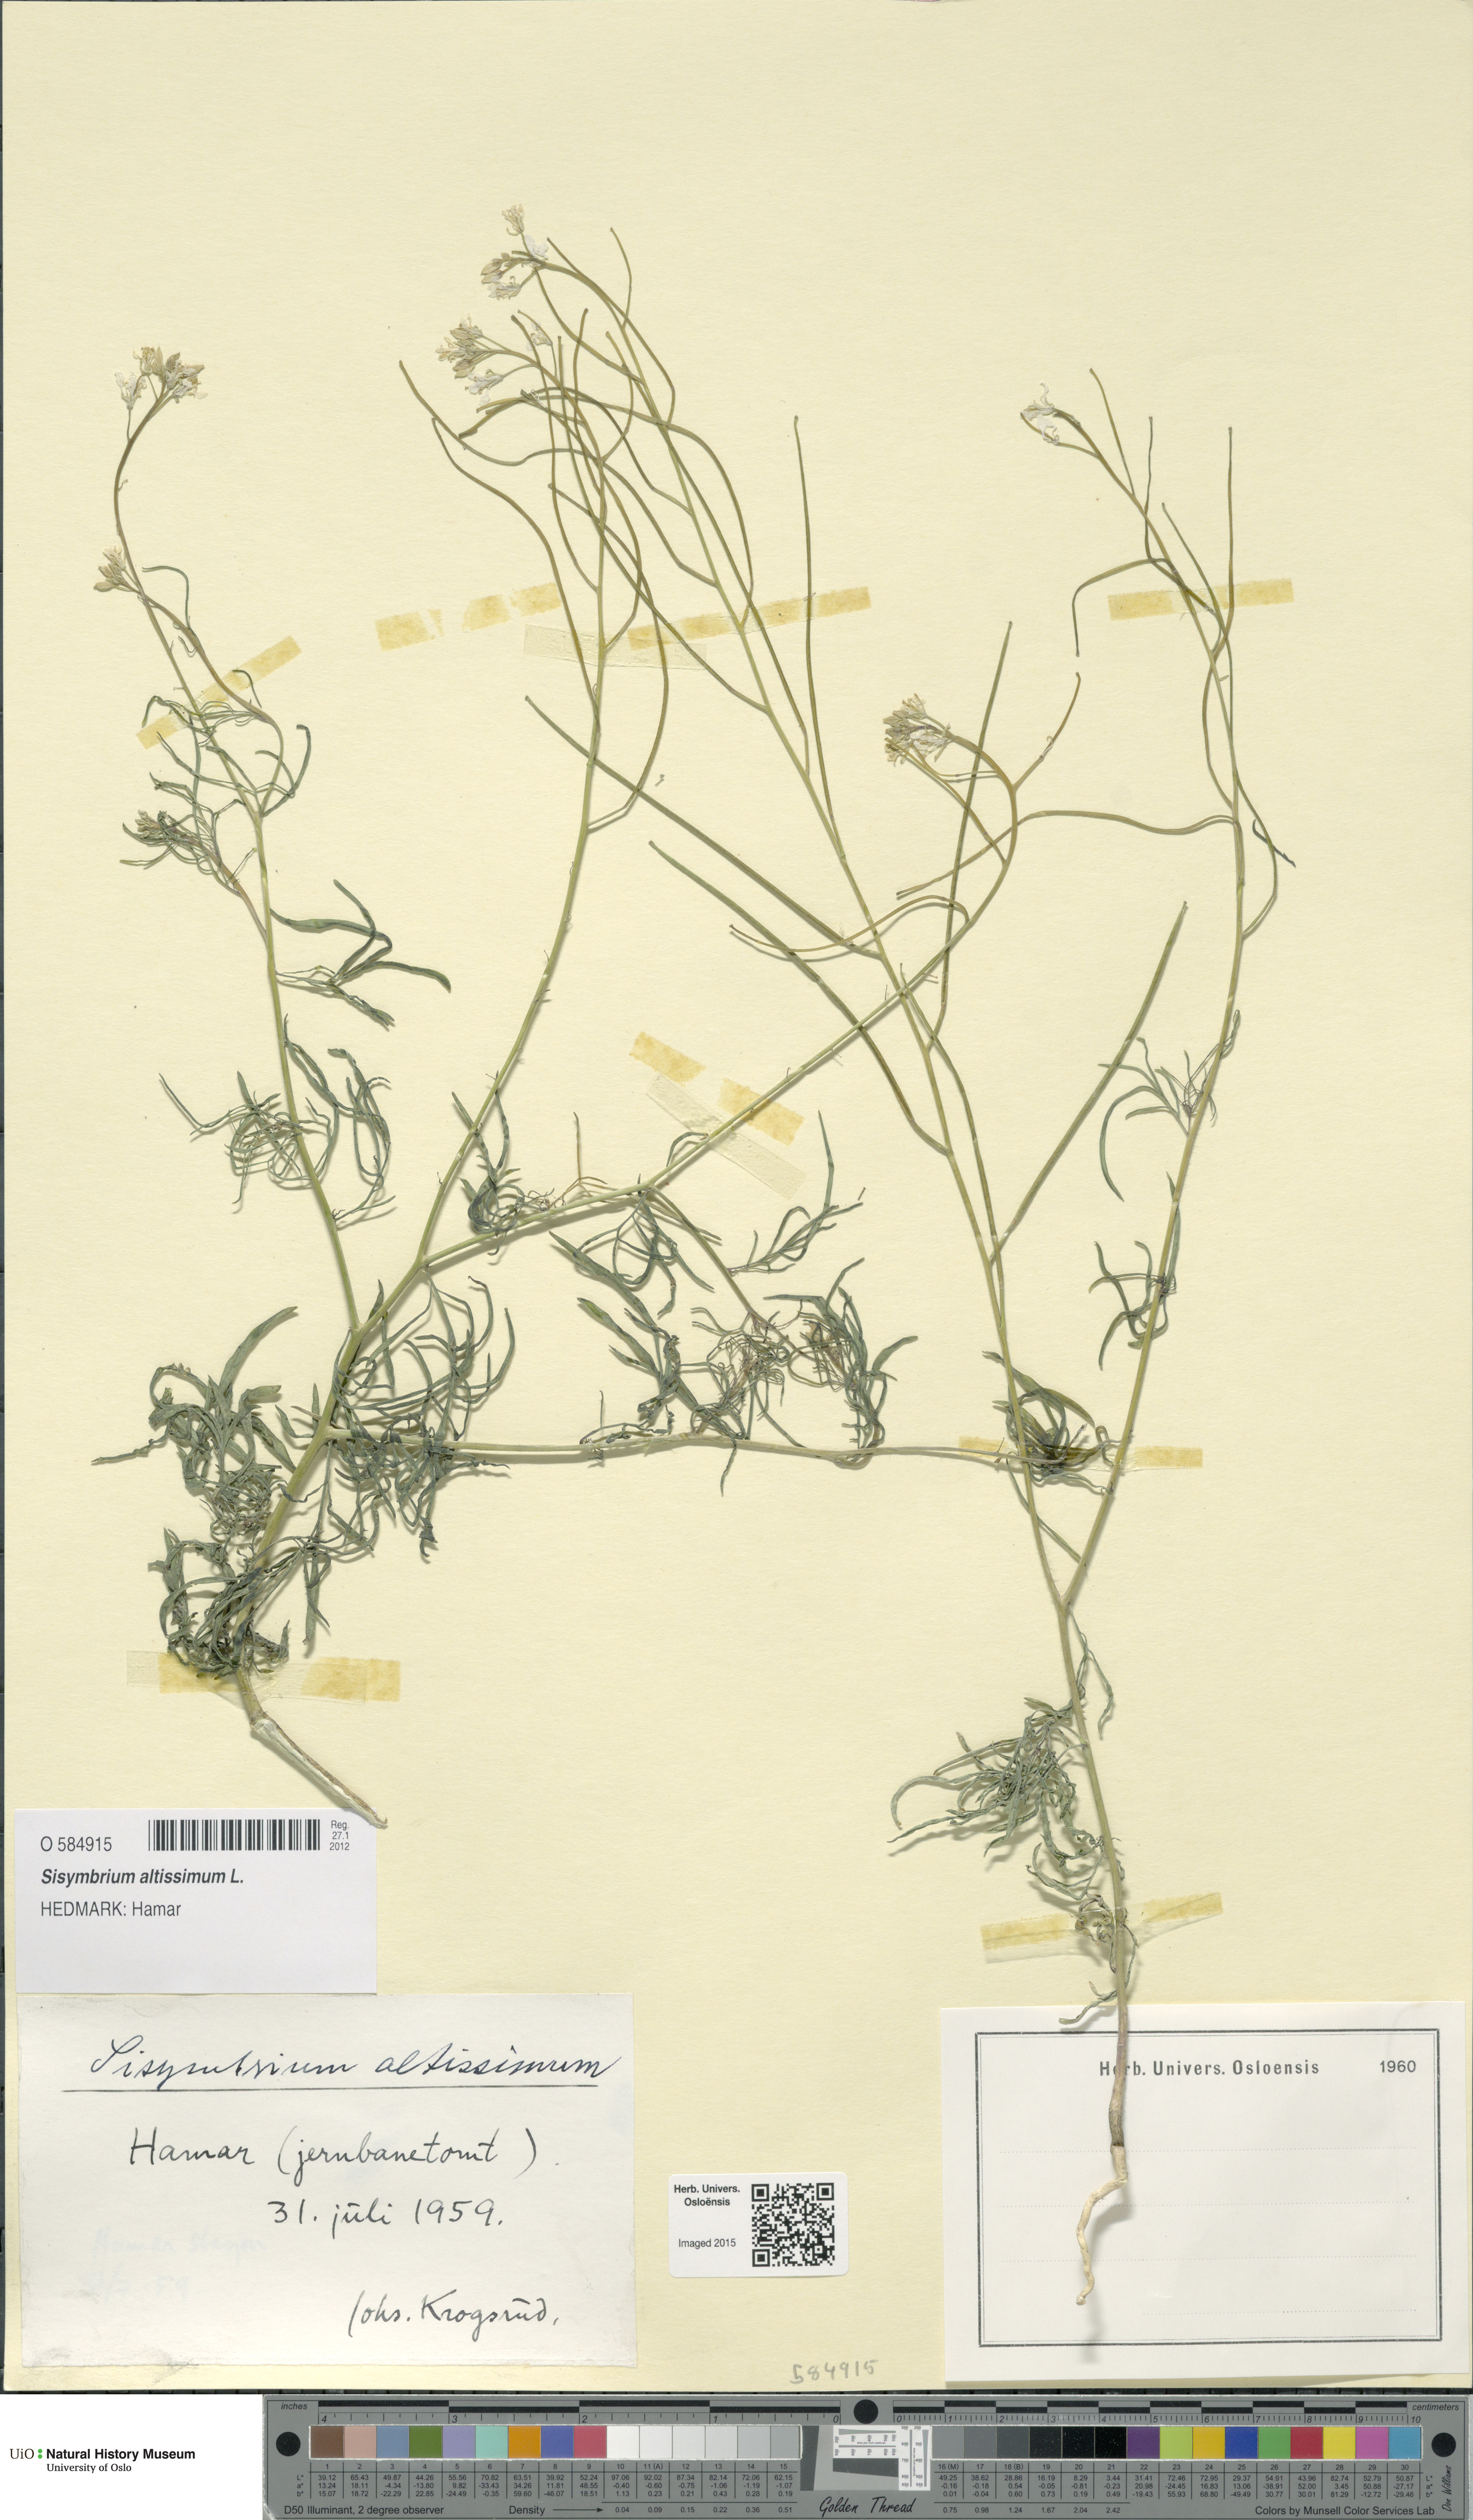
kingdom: Plantae
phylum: Tracheophyta
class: Magnoliopsida
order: Brassicales
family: Brassicaceae
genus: Sisymbrium
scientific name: Sisymbrium altissimum
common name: Tall rocket
